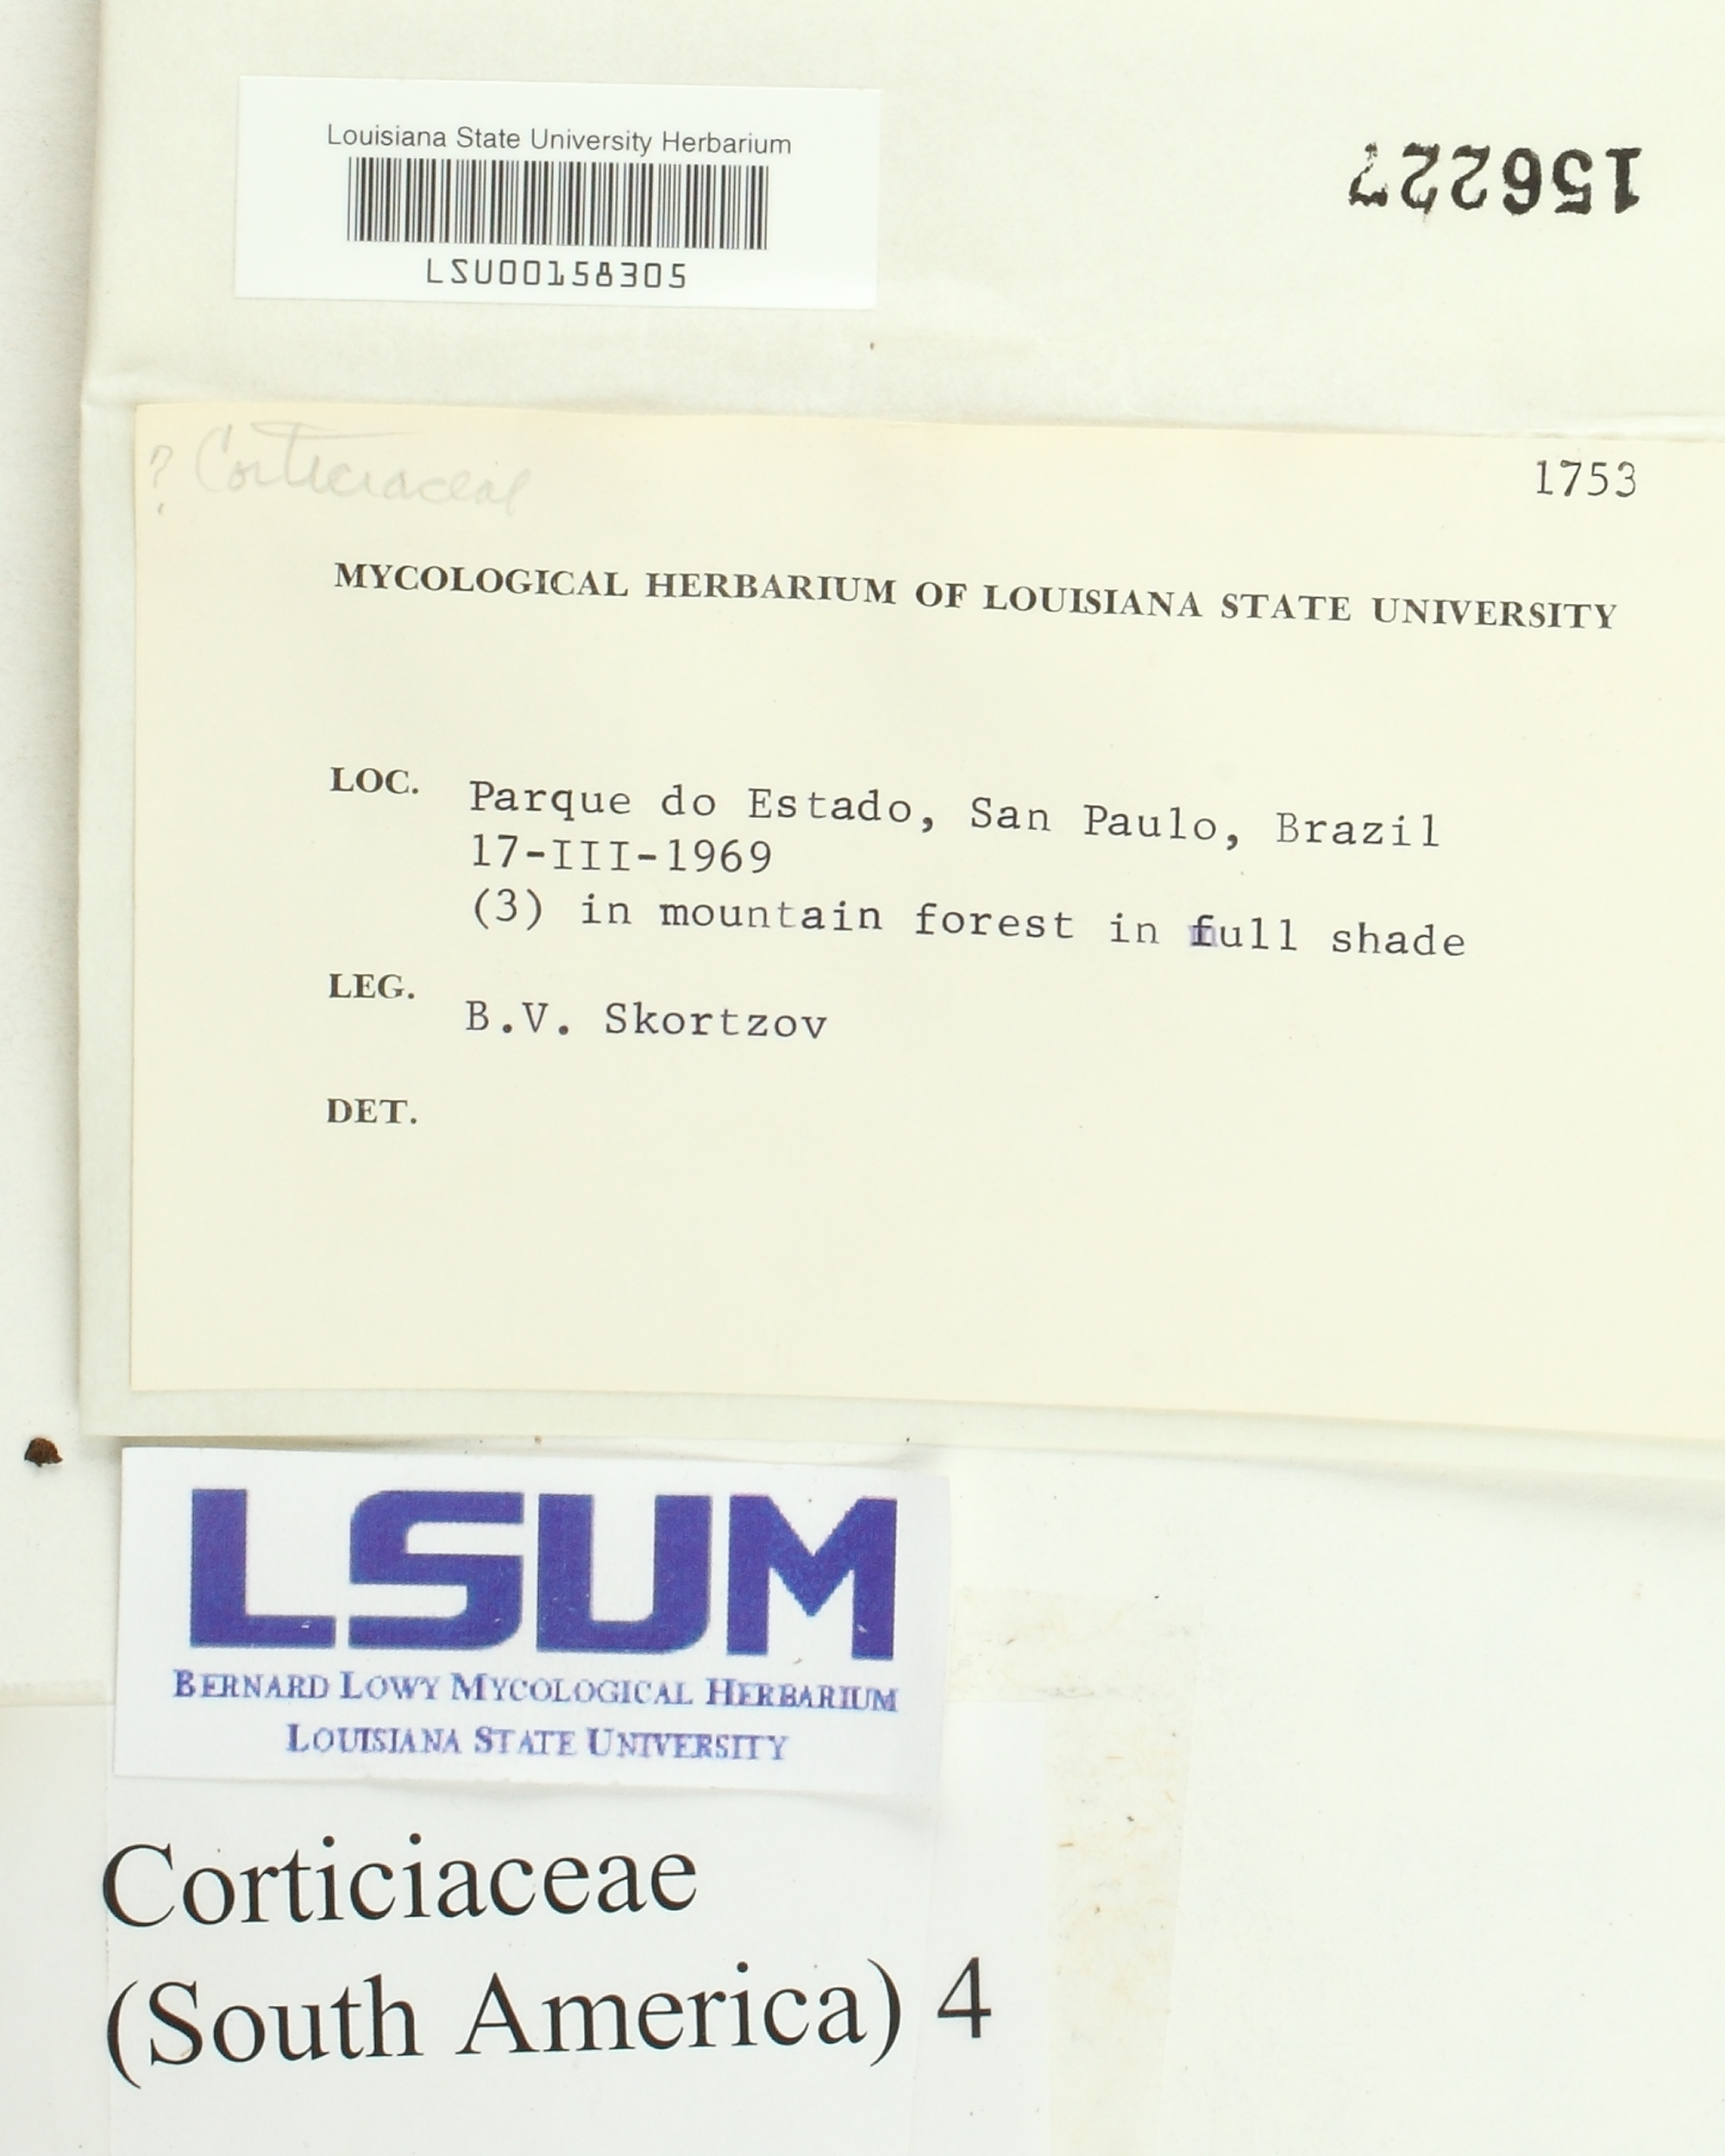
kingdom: Fungi
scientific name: Fungi
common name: Fungi
